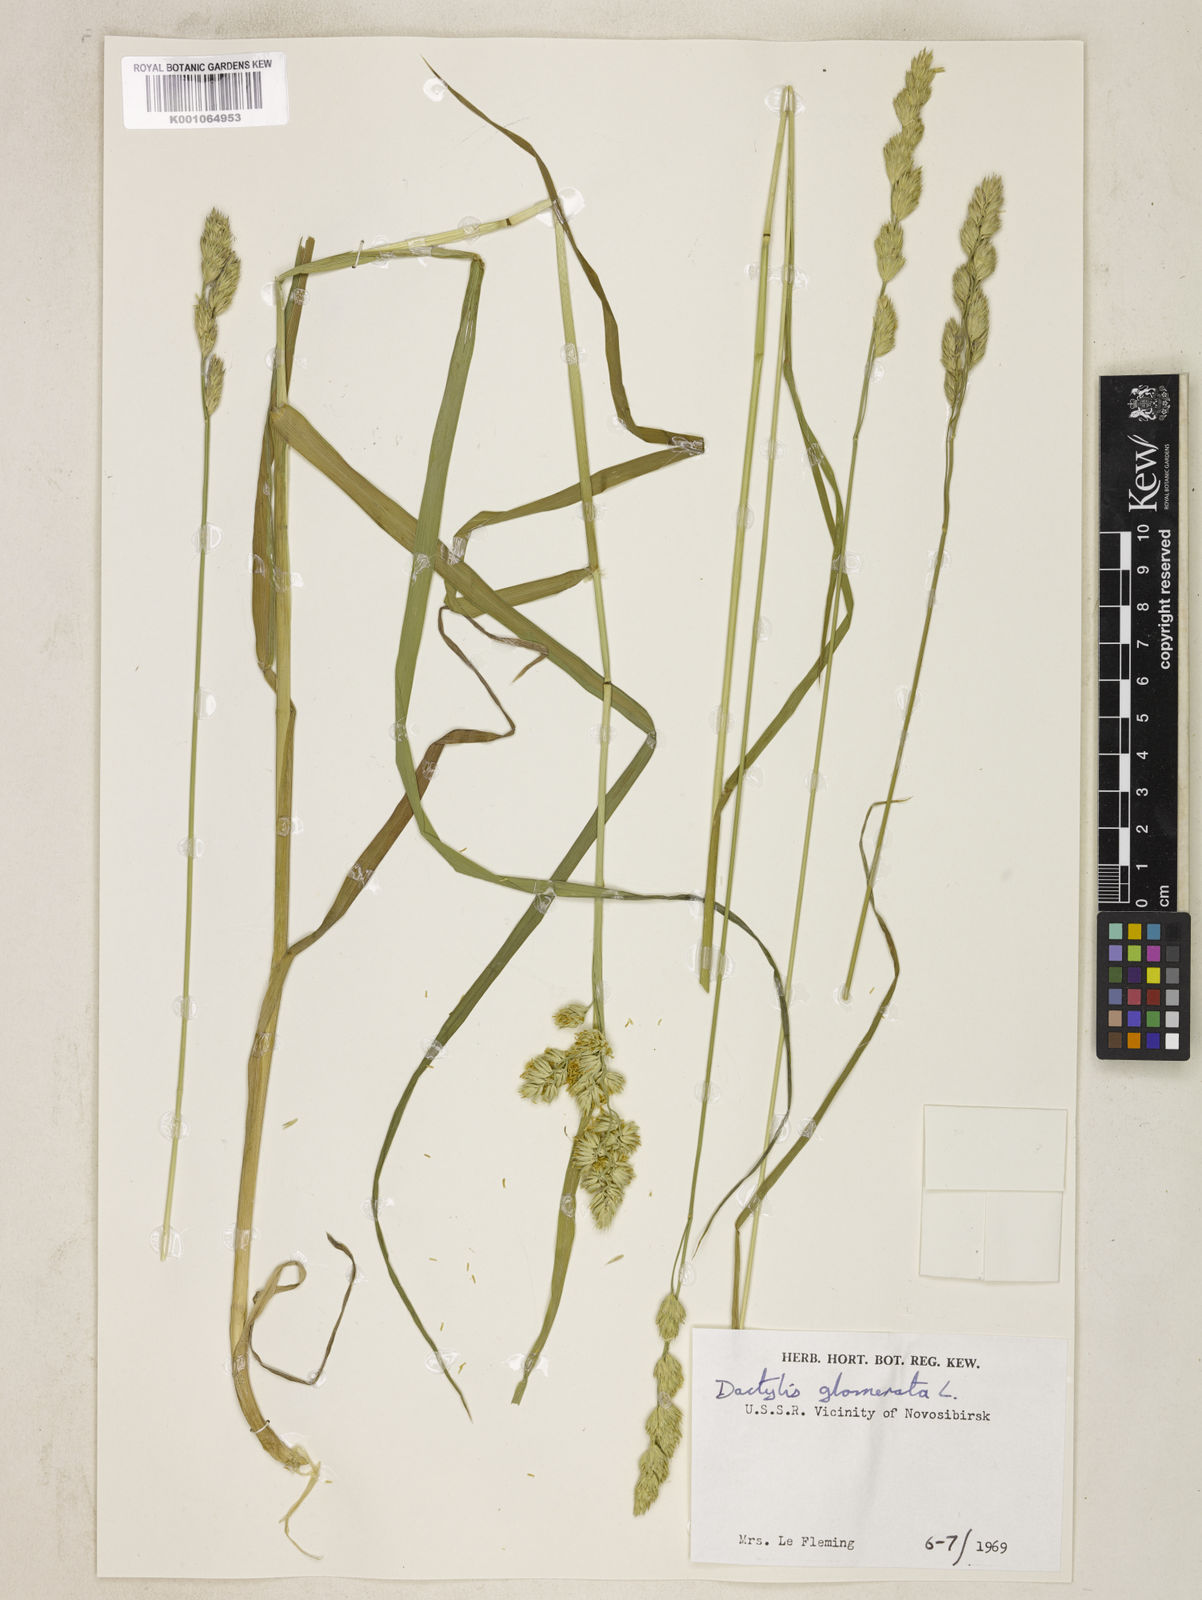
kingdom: Plantae
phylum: Tracheophyta
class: Liliopsida
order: Poales
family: Poaceae
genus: Dactylis
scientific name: Dactylis glomerata
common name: Orchardgrass
